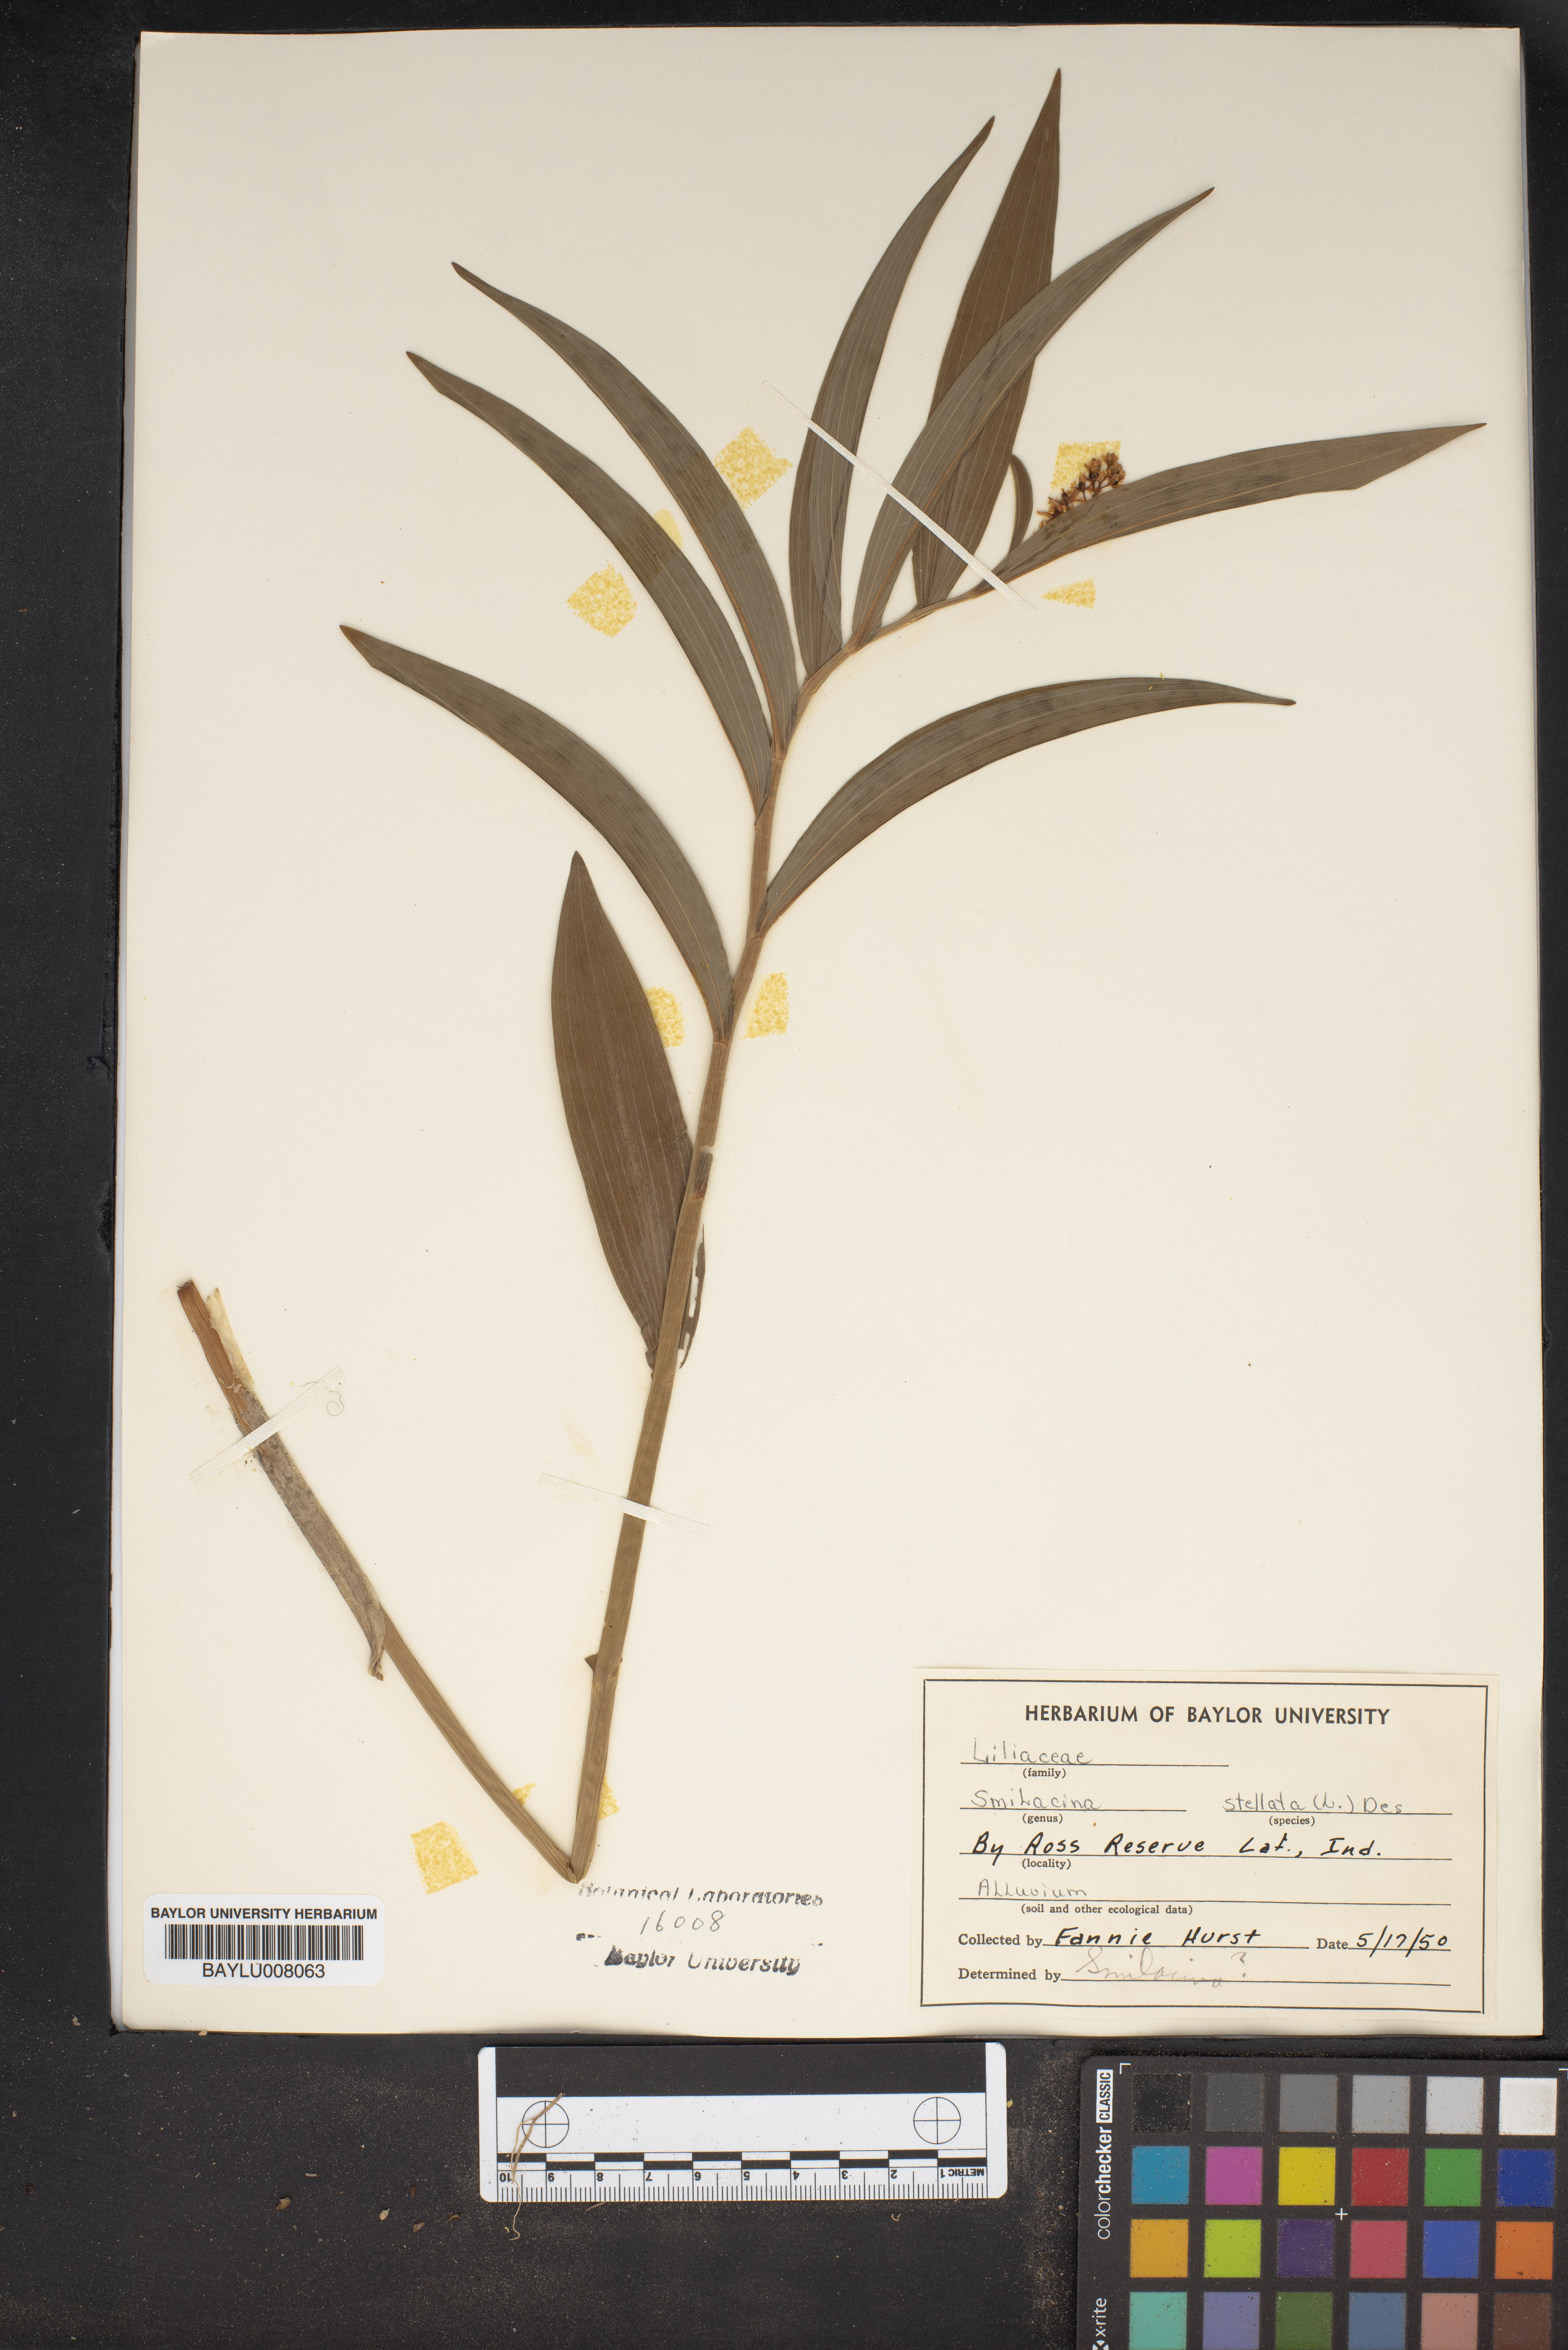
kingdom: Plantae
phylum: Tracheophyta
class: Liliopsida
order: Asparagales
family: Asparagaceae
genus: Maianthemum
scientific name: Maianthemum stellatum
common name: Little false solomon's seal
